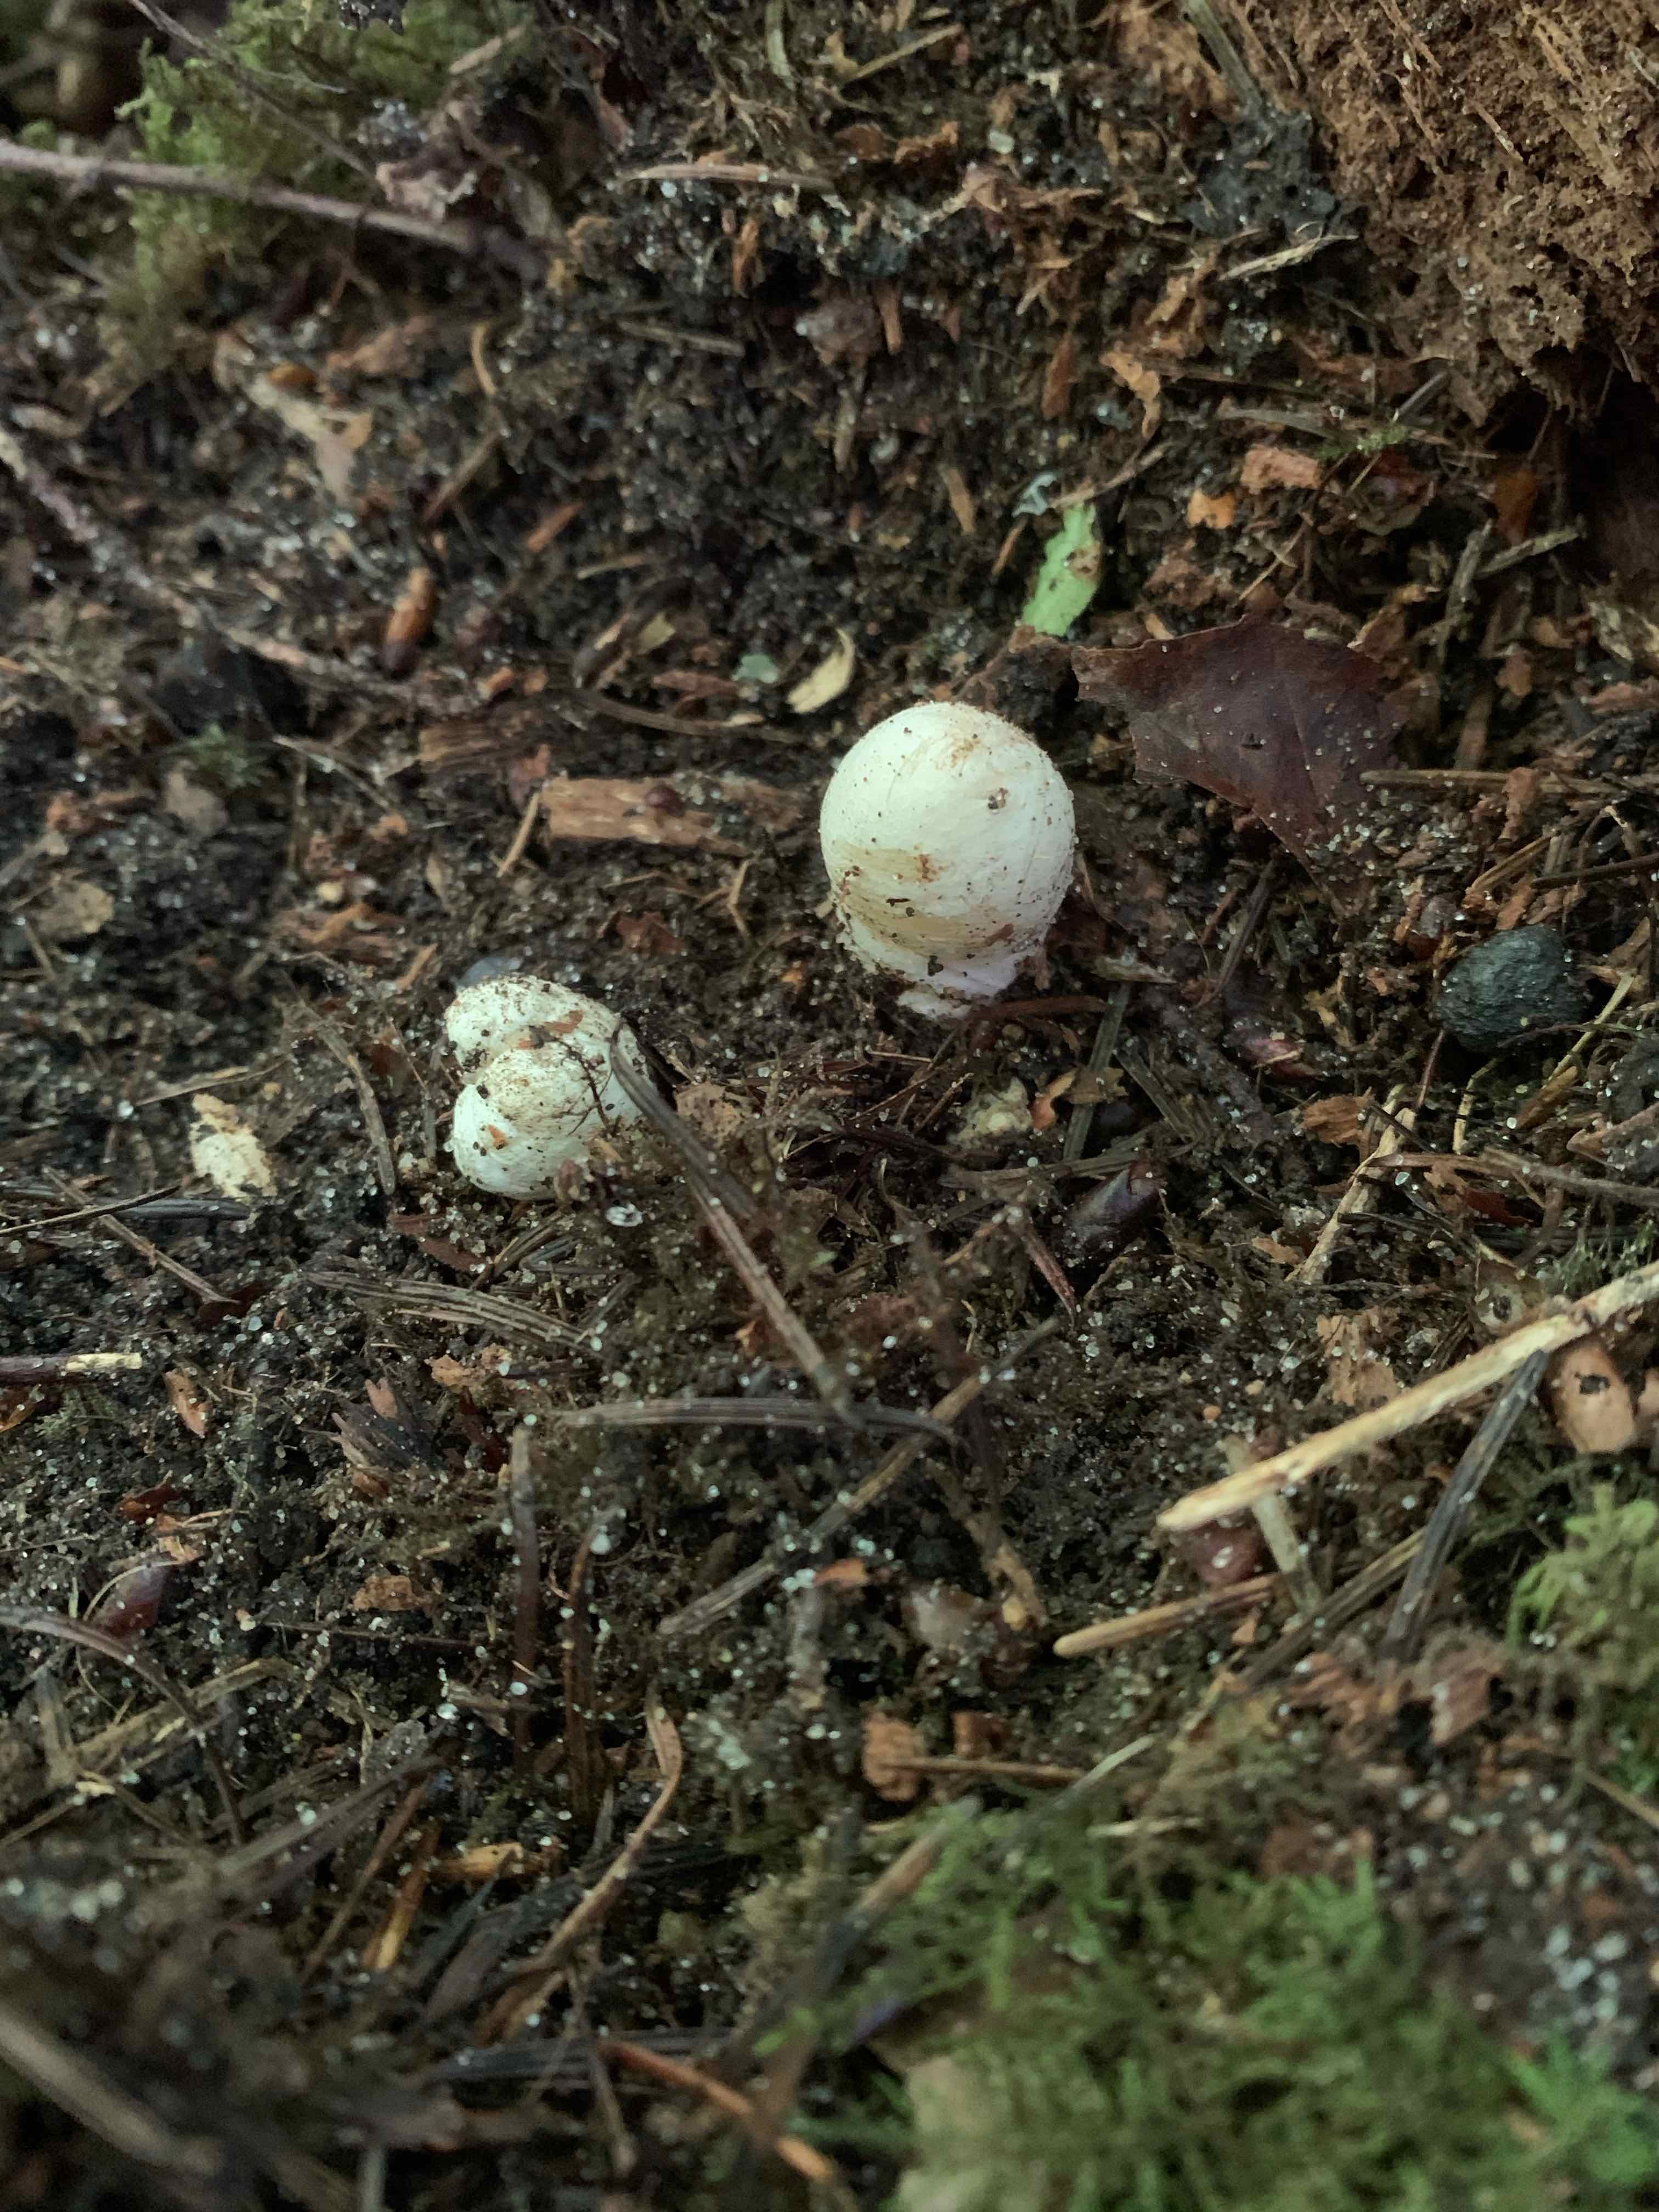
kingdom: Fungi
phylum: Basidiomycota
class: Agaricomycetes
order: Phallales
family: Phallaceae
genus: Mutinus
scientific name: Mutinus caninus
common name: hunde-stinksvamp
